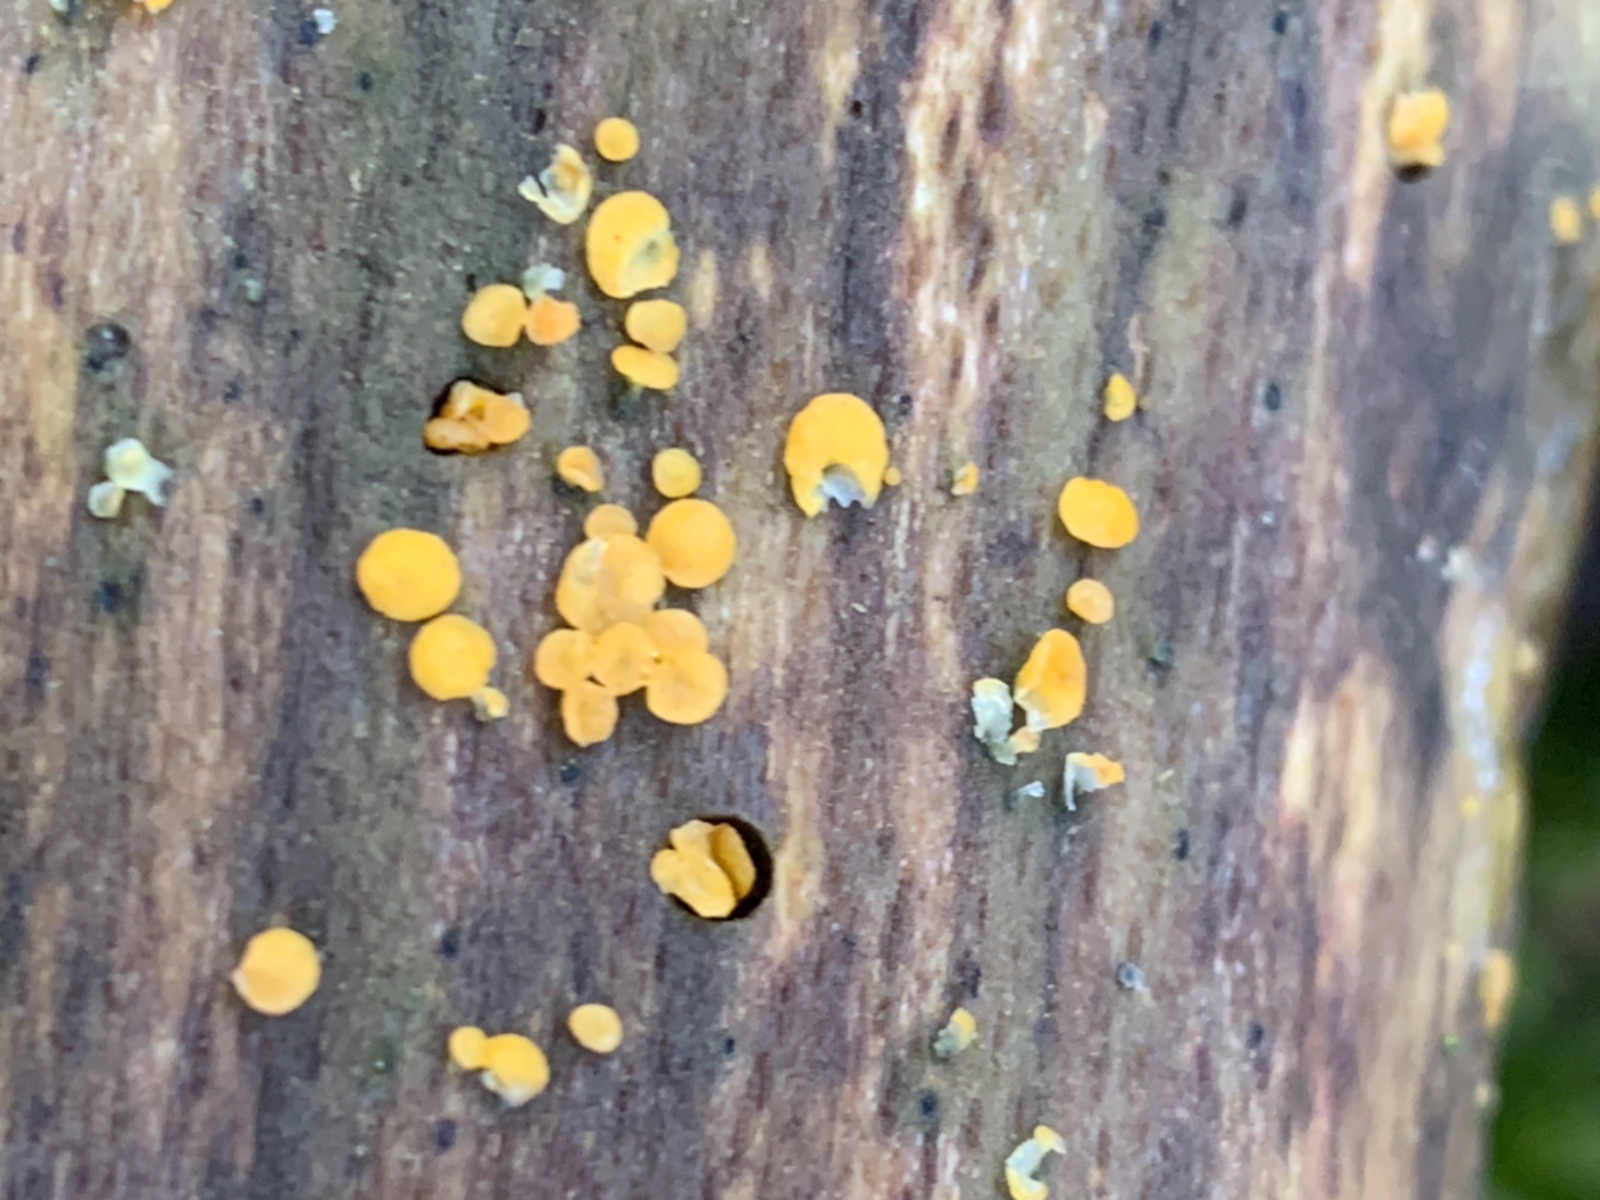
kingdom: Fungi
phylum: Ascomycota
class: Leotiomycetes
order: Helotiales
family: Pezizellaceae
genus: Calycina
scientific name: Calycina citrina
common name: almindelig gulskive
